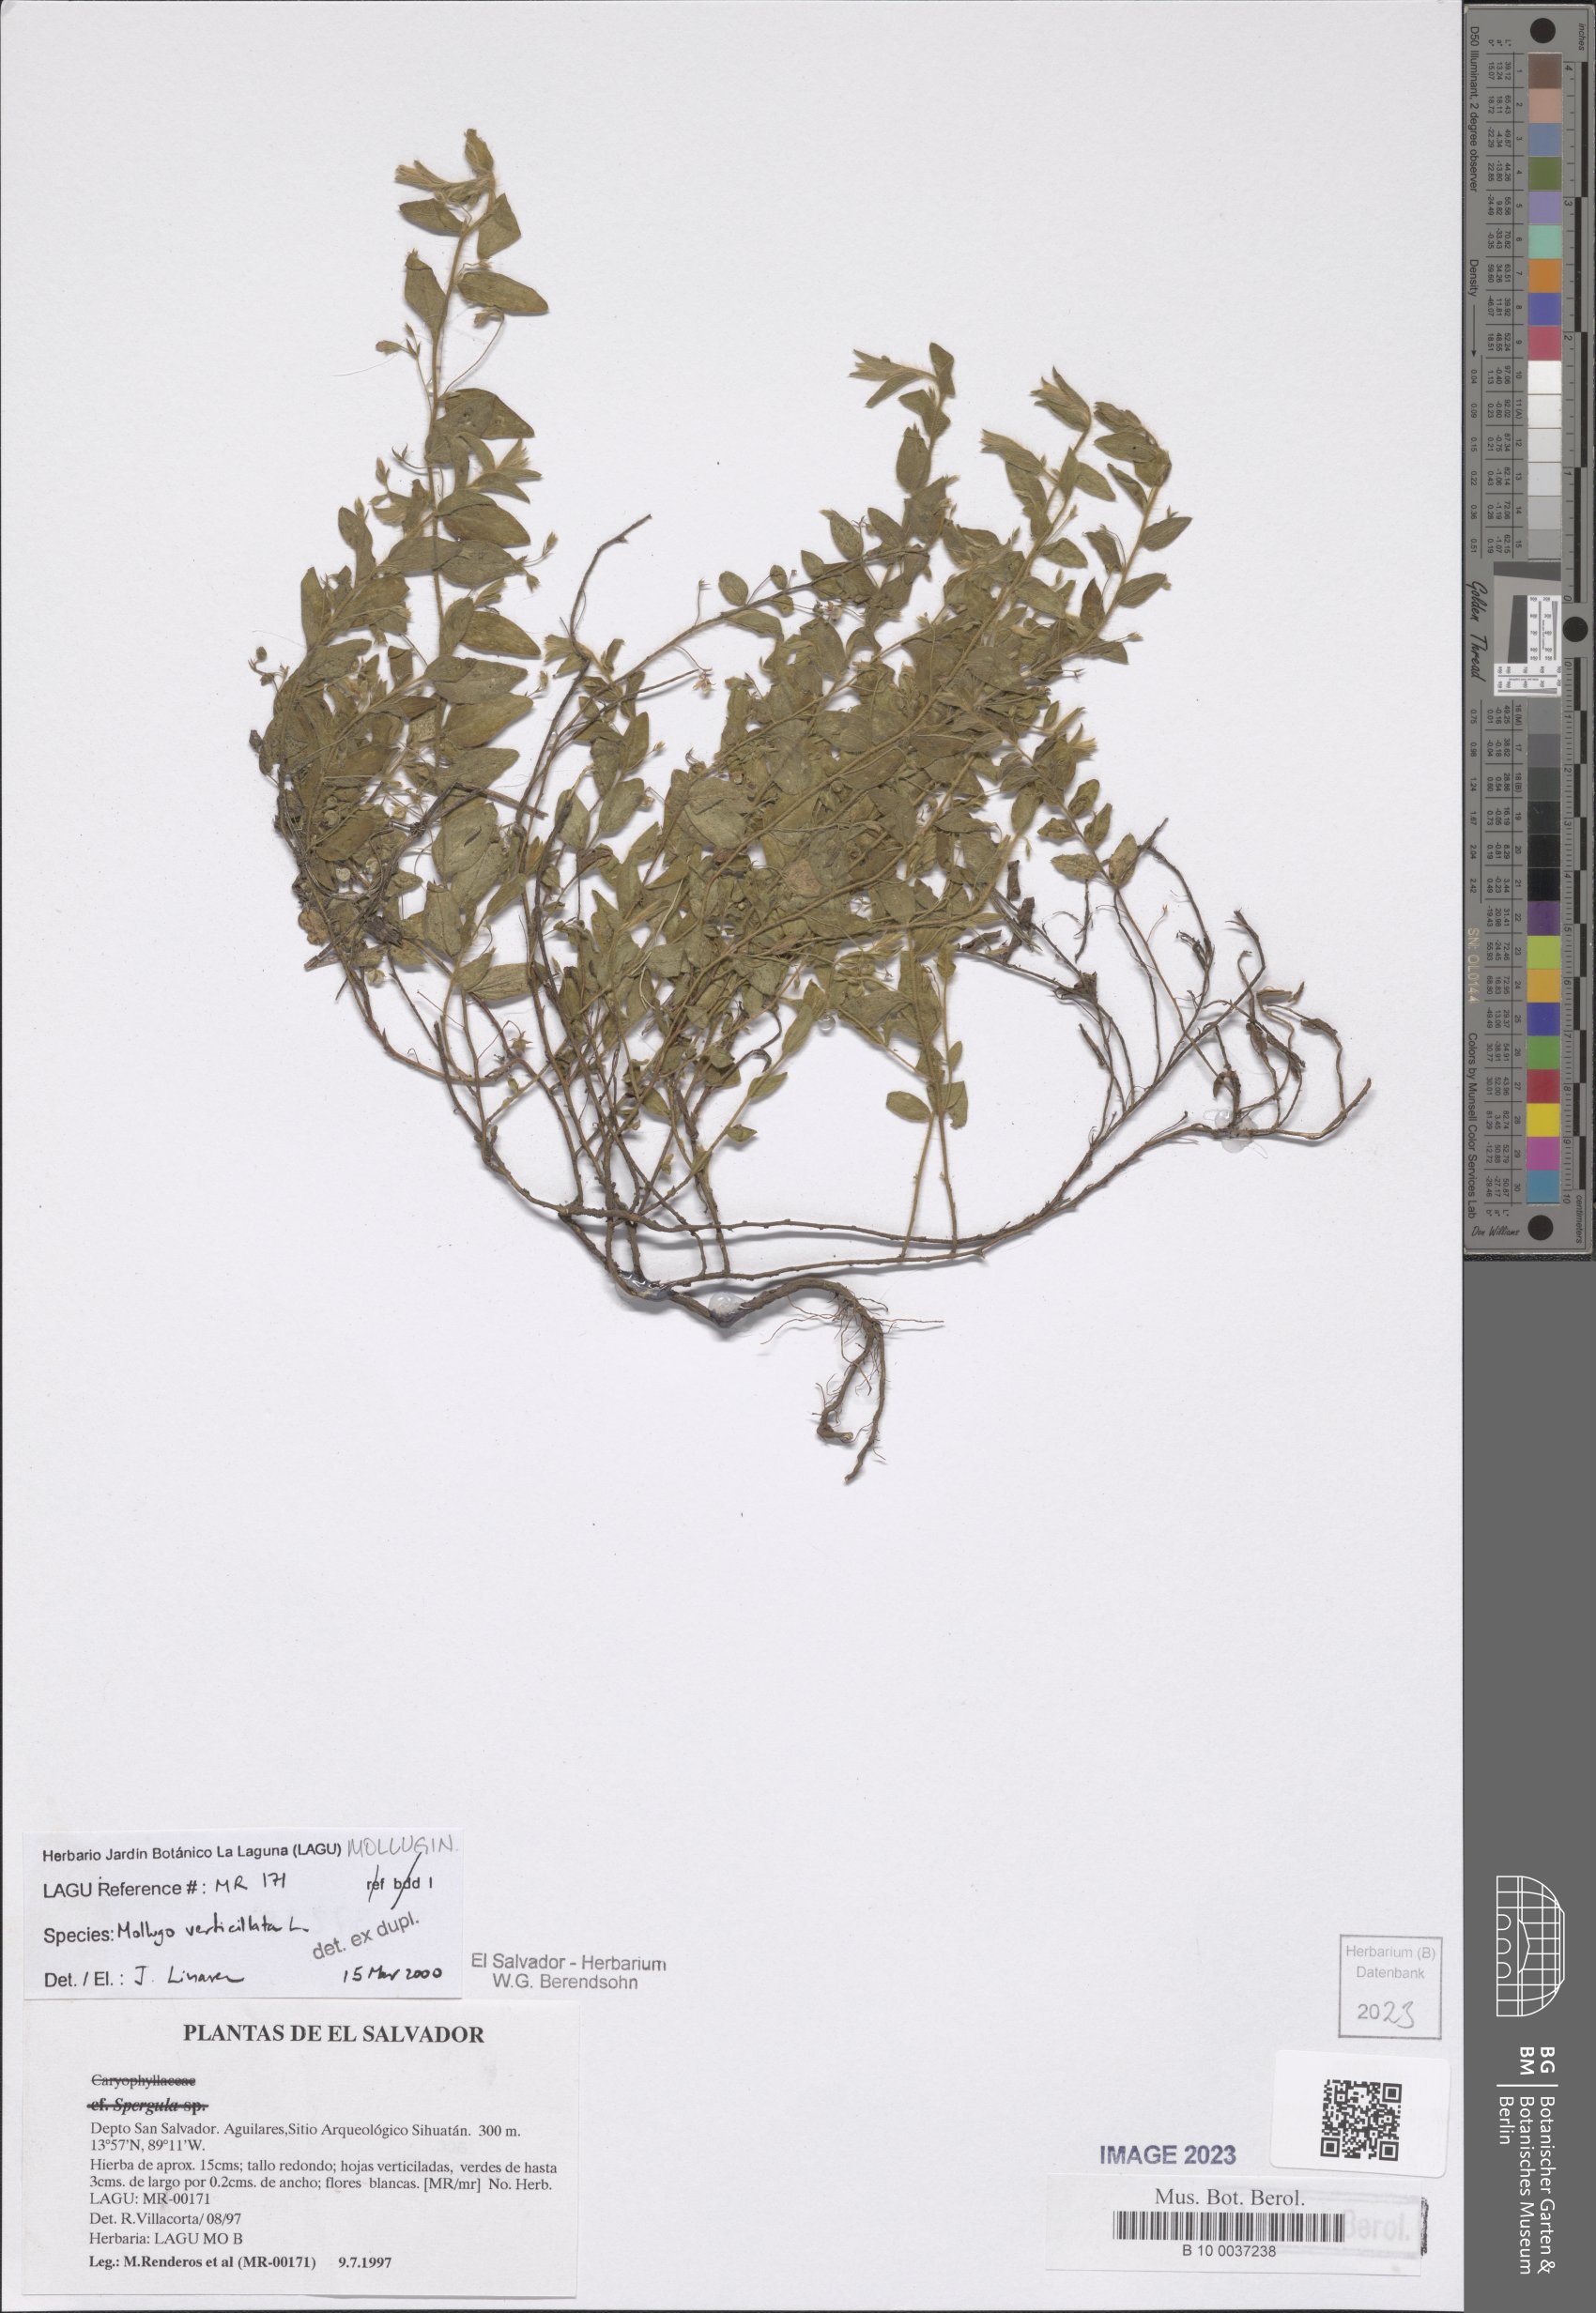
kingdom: Plantae
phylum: Tracheophyta
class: Magnoliopsida
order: Caryophyllales
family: Molluginaceae
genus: Mollugo
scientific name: Mollugo verticillata
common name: Green carpetweed
